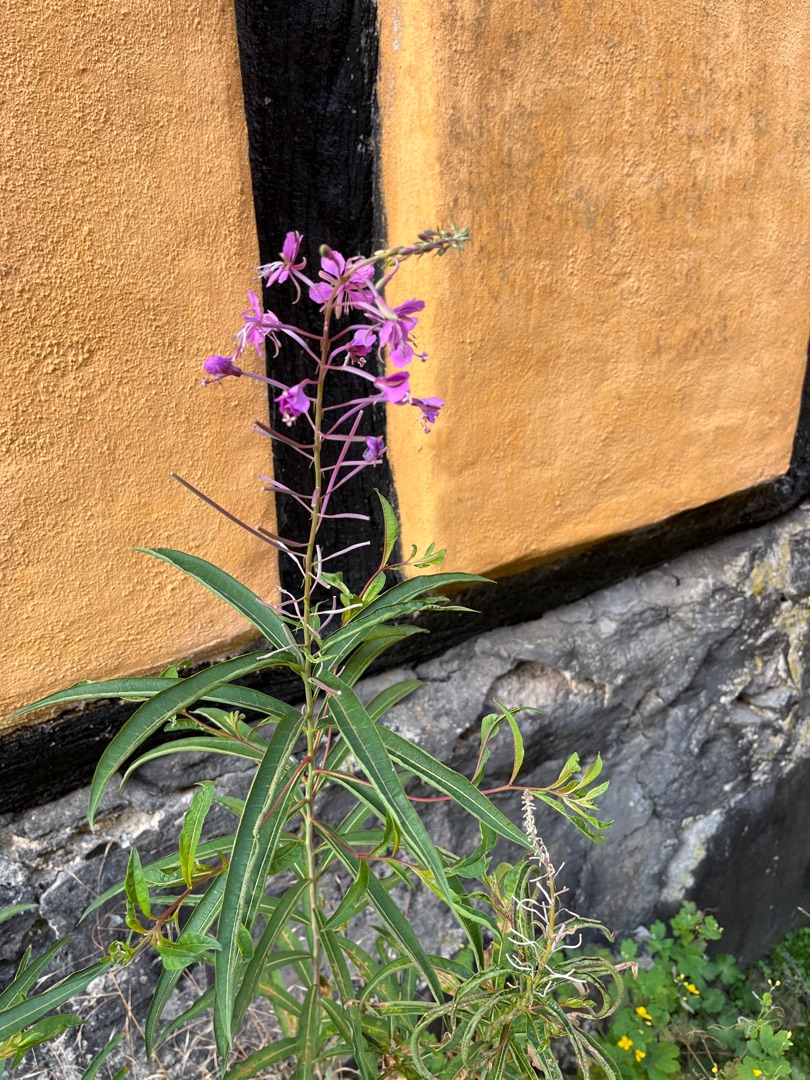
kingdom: Plantae
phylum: Tracheophyta
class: Magnoliopsida
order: Myrtales
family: Onagraceae
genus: Chamaenerion
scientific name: Chamaenerion angustifolium
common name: Gederams
